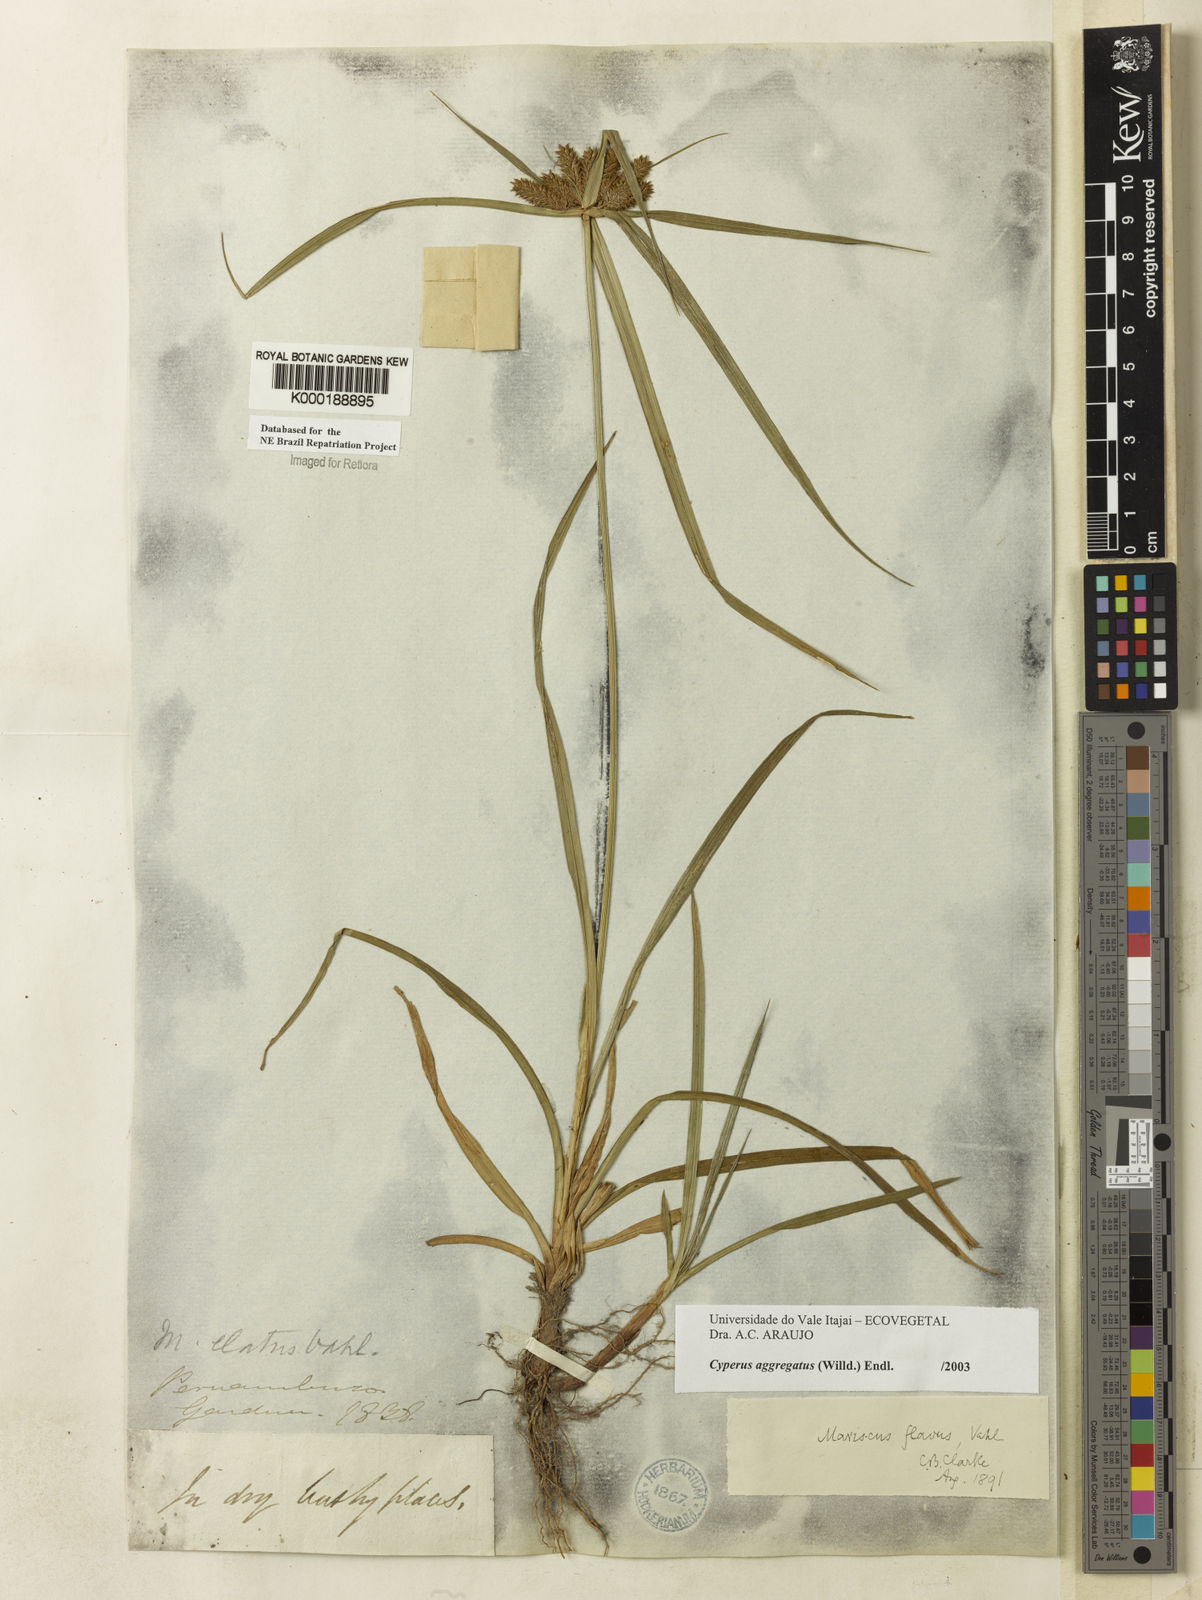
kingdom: Plantae
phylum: Tracheophyta
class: Liliopsida
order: Poales
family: Cyperaceae
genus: Cyperus
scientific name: Cyperus aggregatus
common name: Inflatedscale flatsedge
